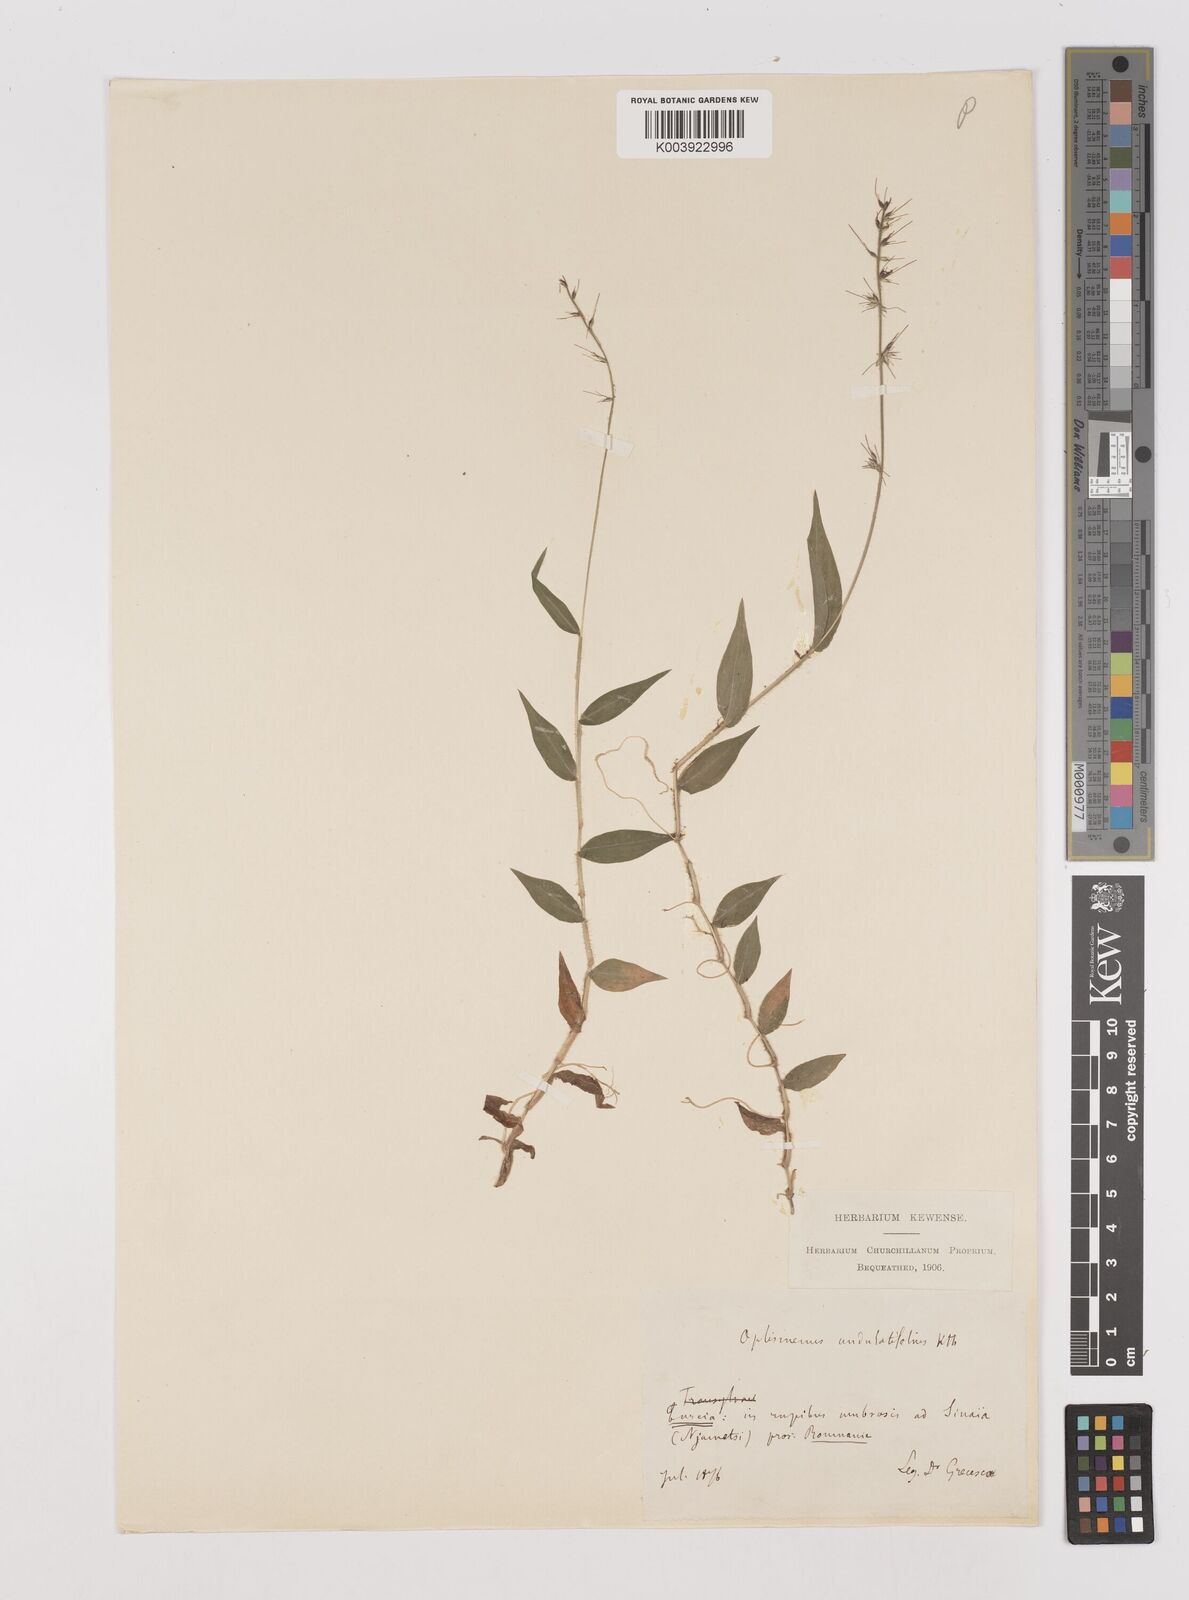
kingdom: Plantae
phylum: Tracheophyta
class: Liliopsida
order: Poales
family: Poaceae
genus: Oplismenus
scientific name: Oplismenus undulatifolius
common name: Wavyleaf basketgrass
